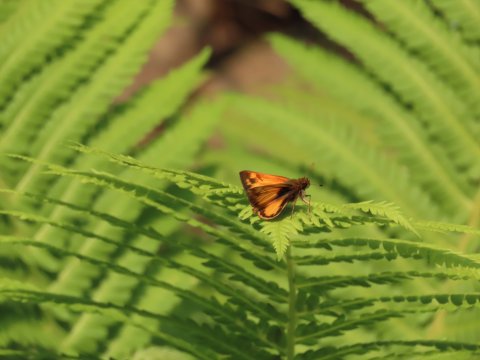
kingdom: Animalia
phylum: Arthropoda
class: Insecta
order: Lepidoptera
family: Hesperiidae
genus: Lon
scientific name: Lon zabulon
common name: Zabulon Skipper
